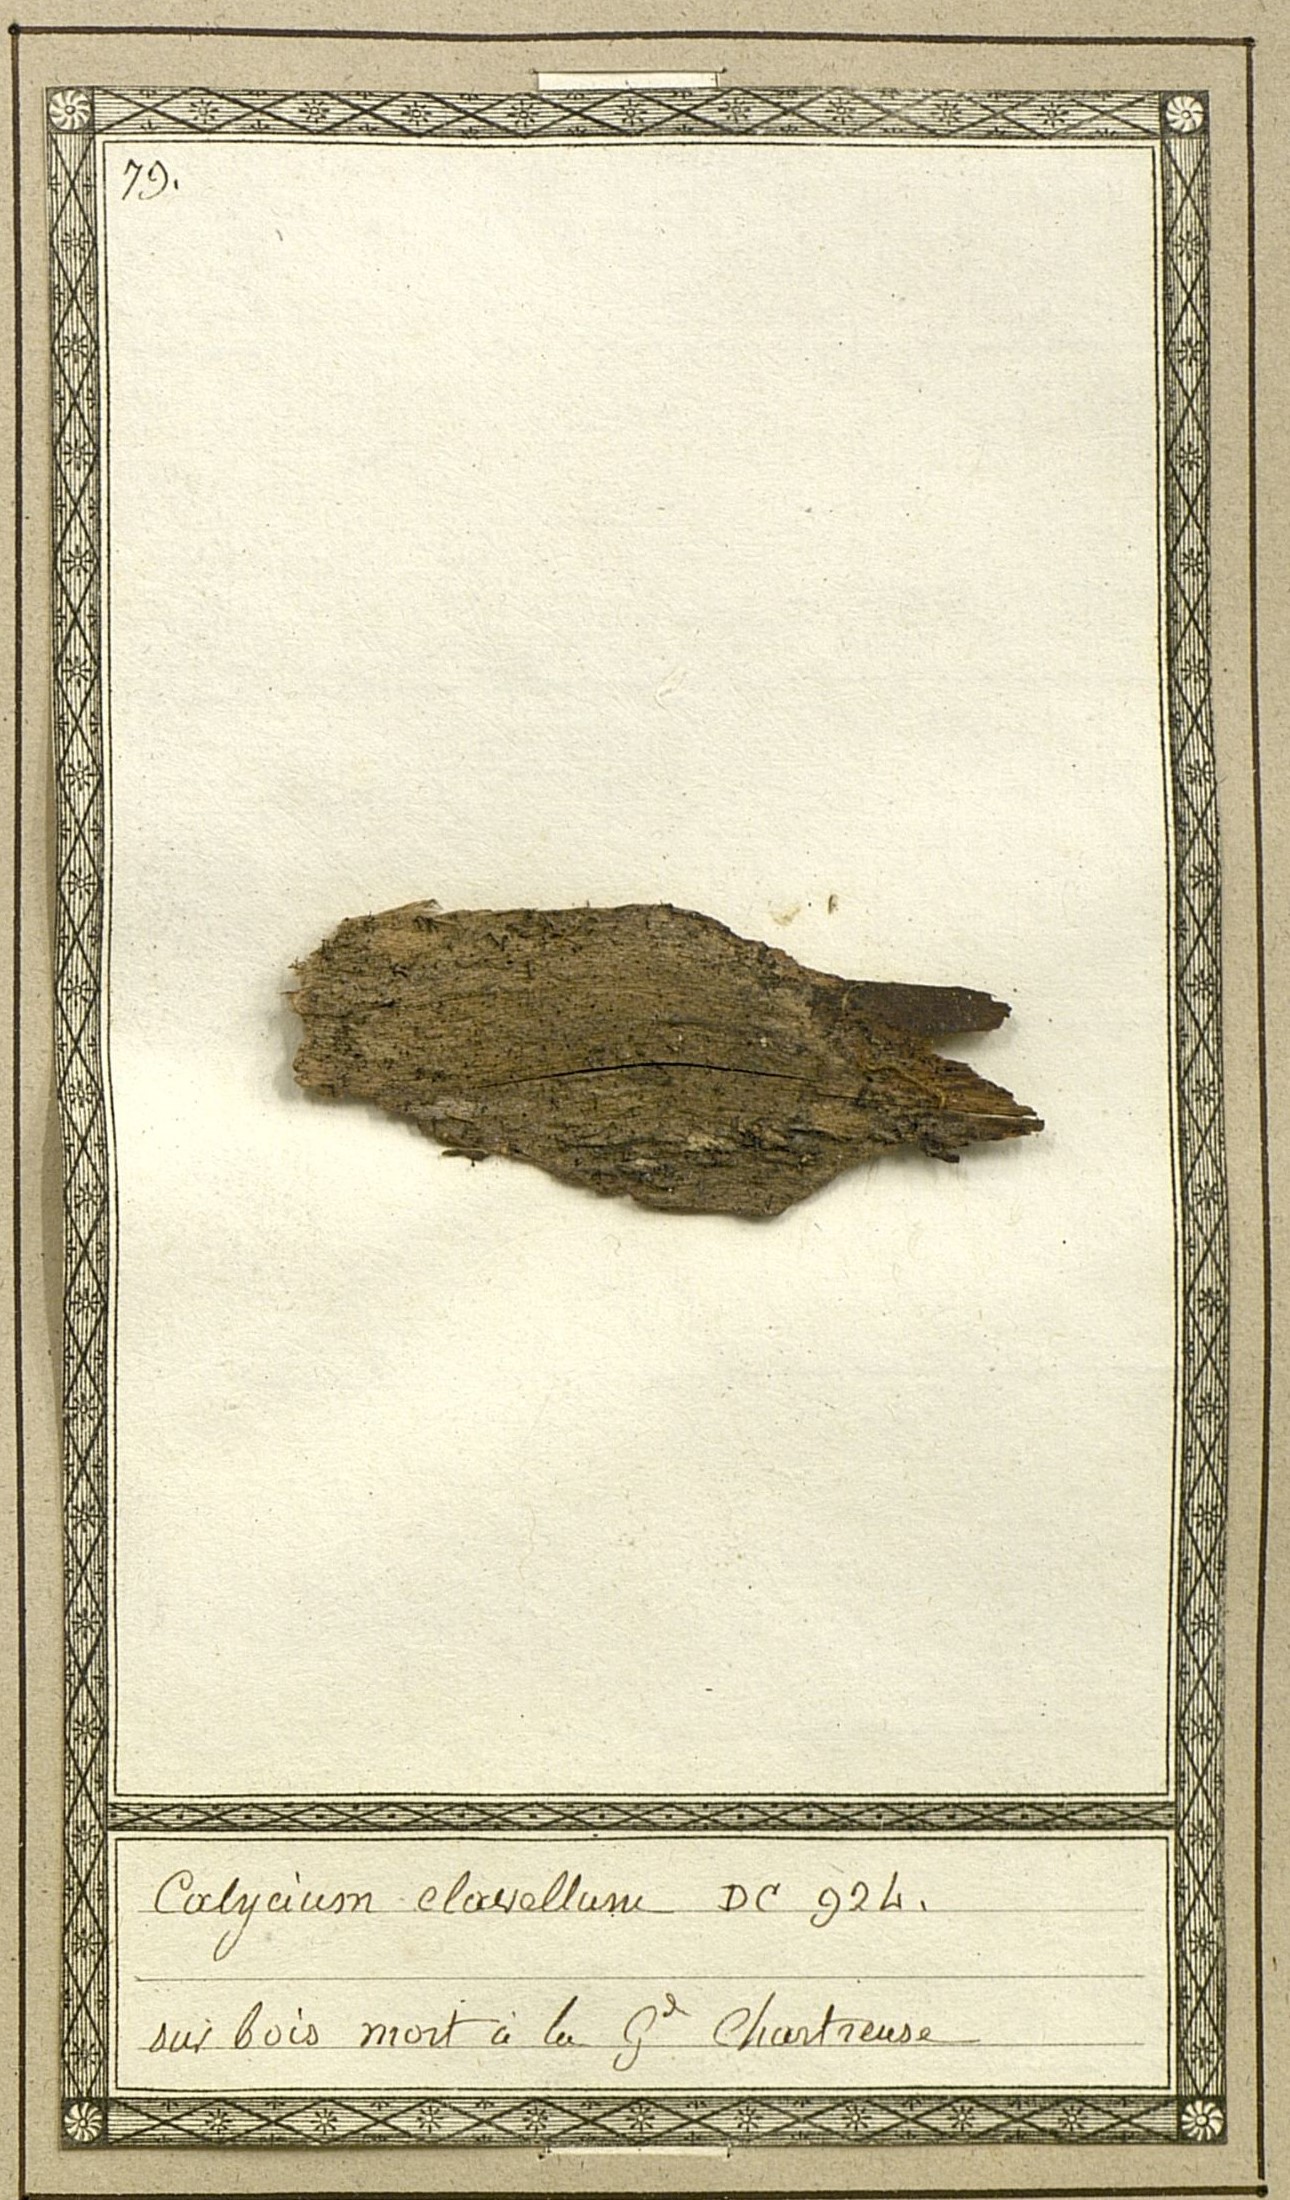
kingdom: Fungi
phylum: Ascomycota
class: Lecanoromycetes
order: Caliciales
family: Caliciaceae
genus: Calicium
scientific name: Calicium salicinum
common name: Rusted stubble lichen
